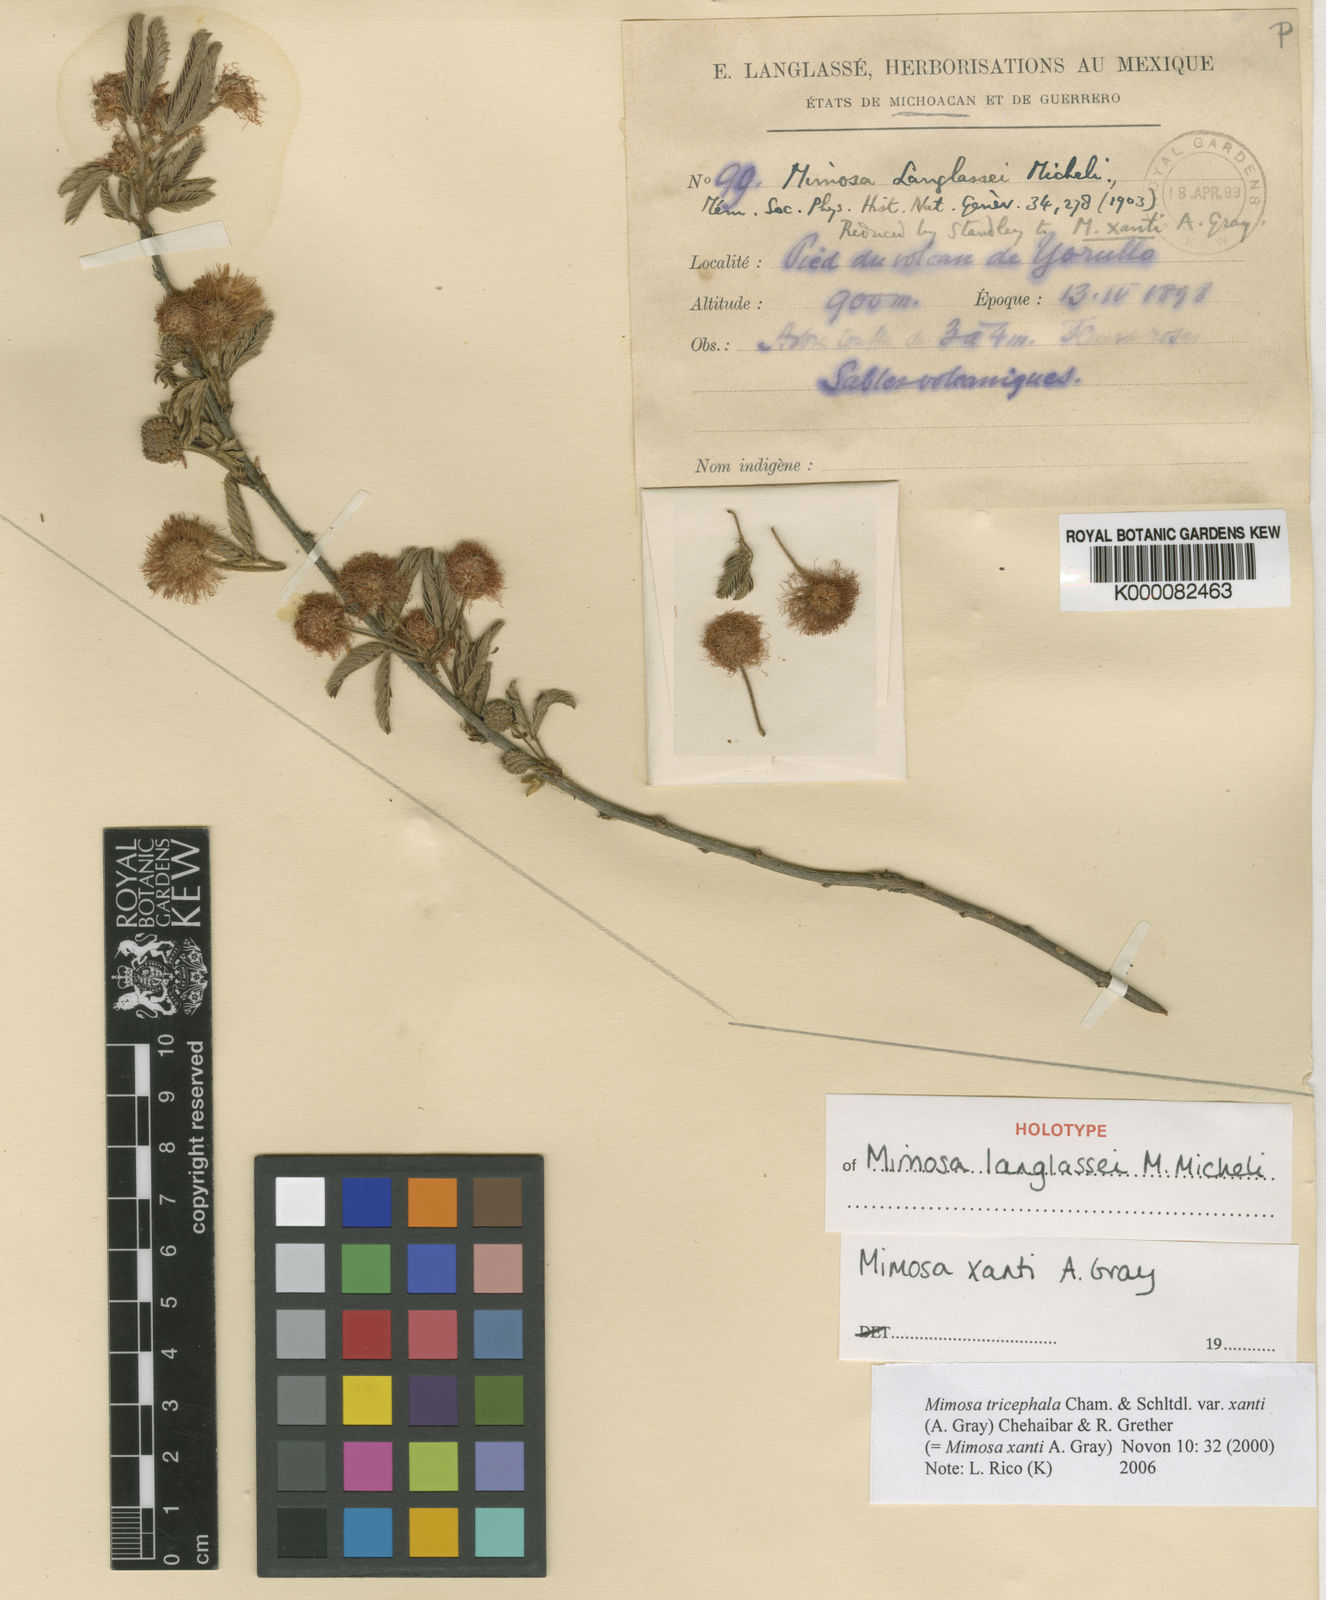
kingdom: Plantae
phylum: Tracheophyta
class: Magnoliopsida
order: Fabales
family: Fabaceae
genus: Mimosa
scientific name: Mimosa tricephala
